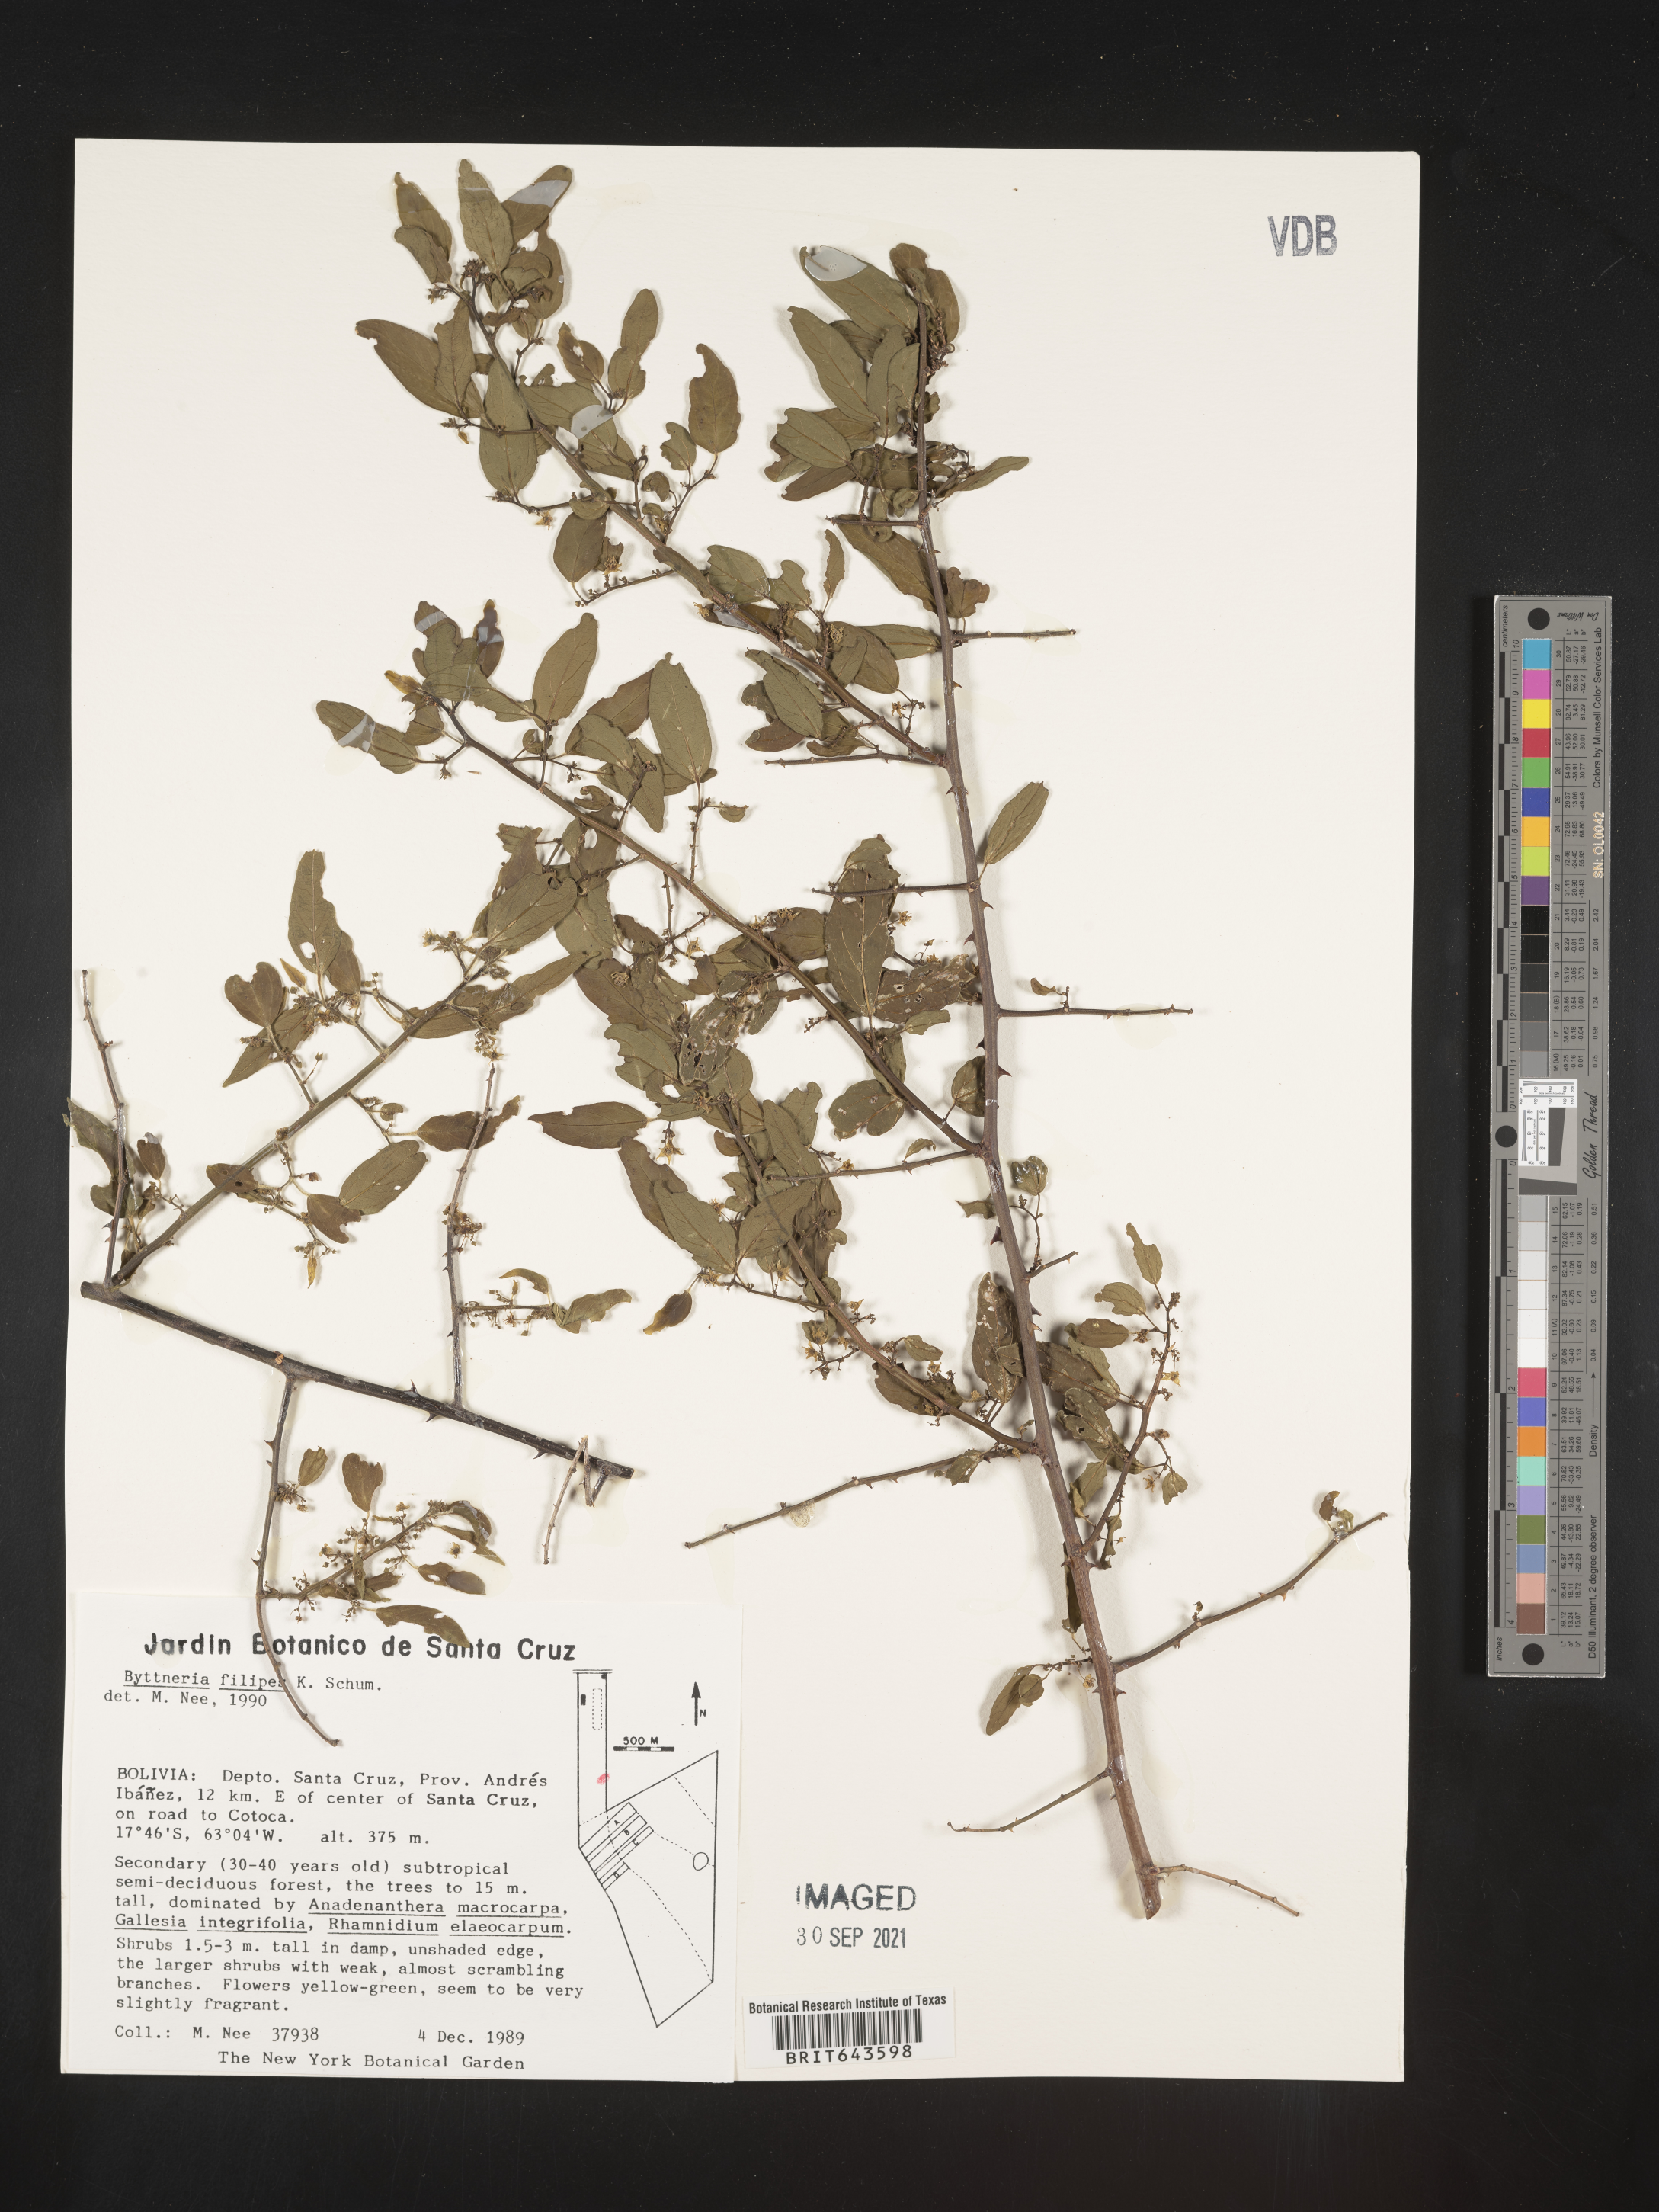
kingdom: Plantae
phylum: Tracheophyta
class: Magnoliopsida
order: Malvales
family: Malvaceae
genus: Byttneria
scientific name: Byttneria
